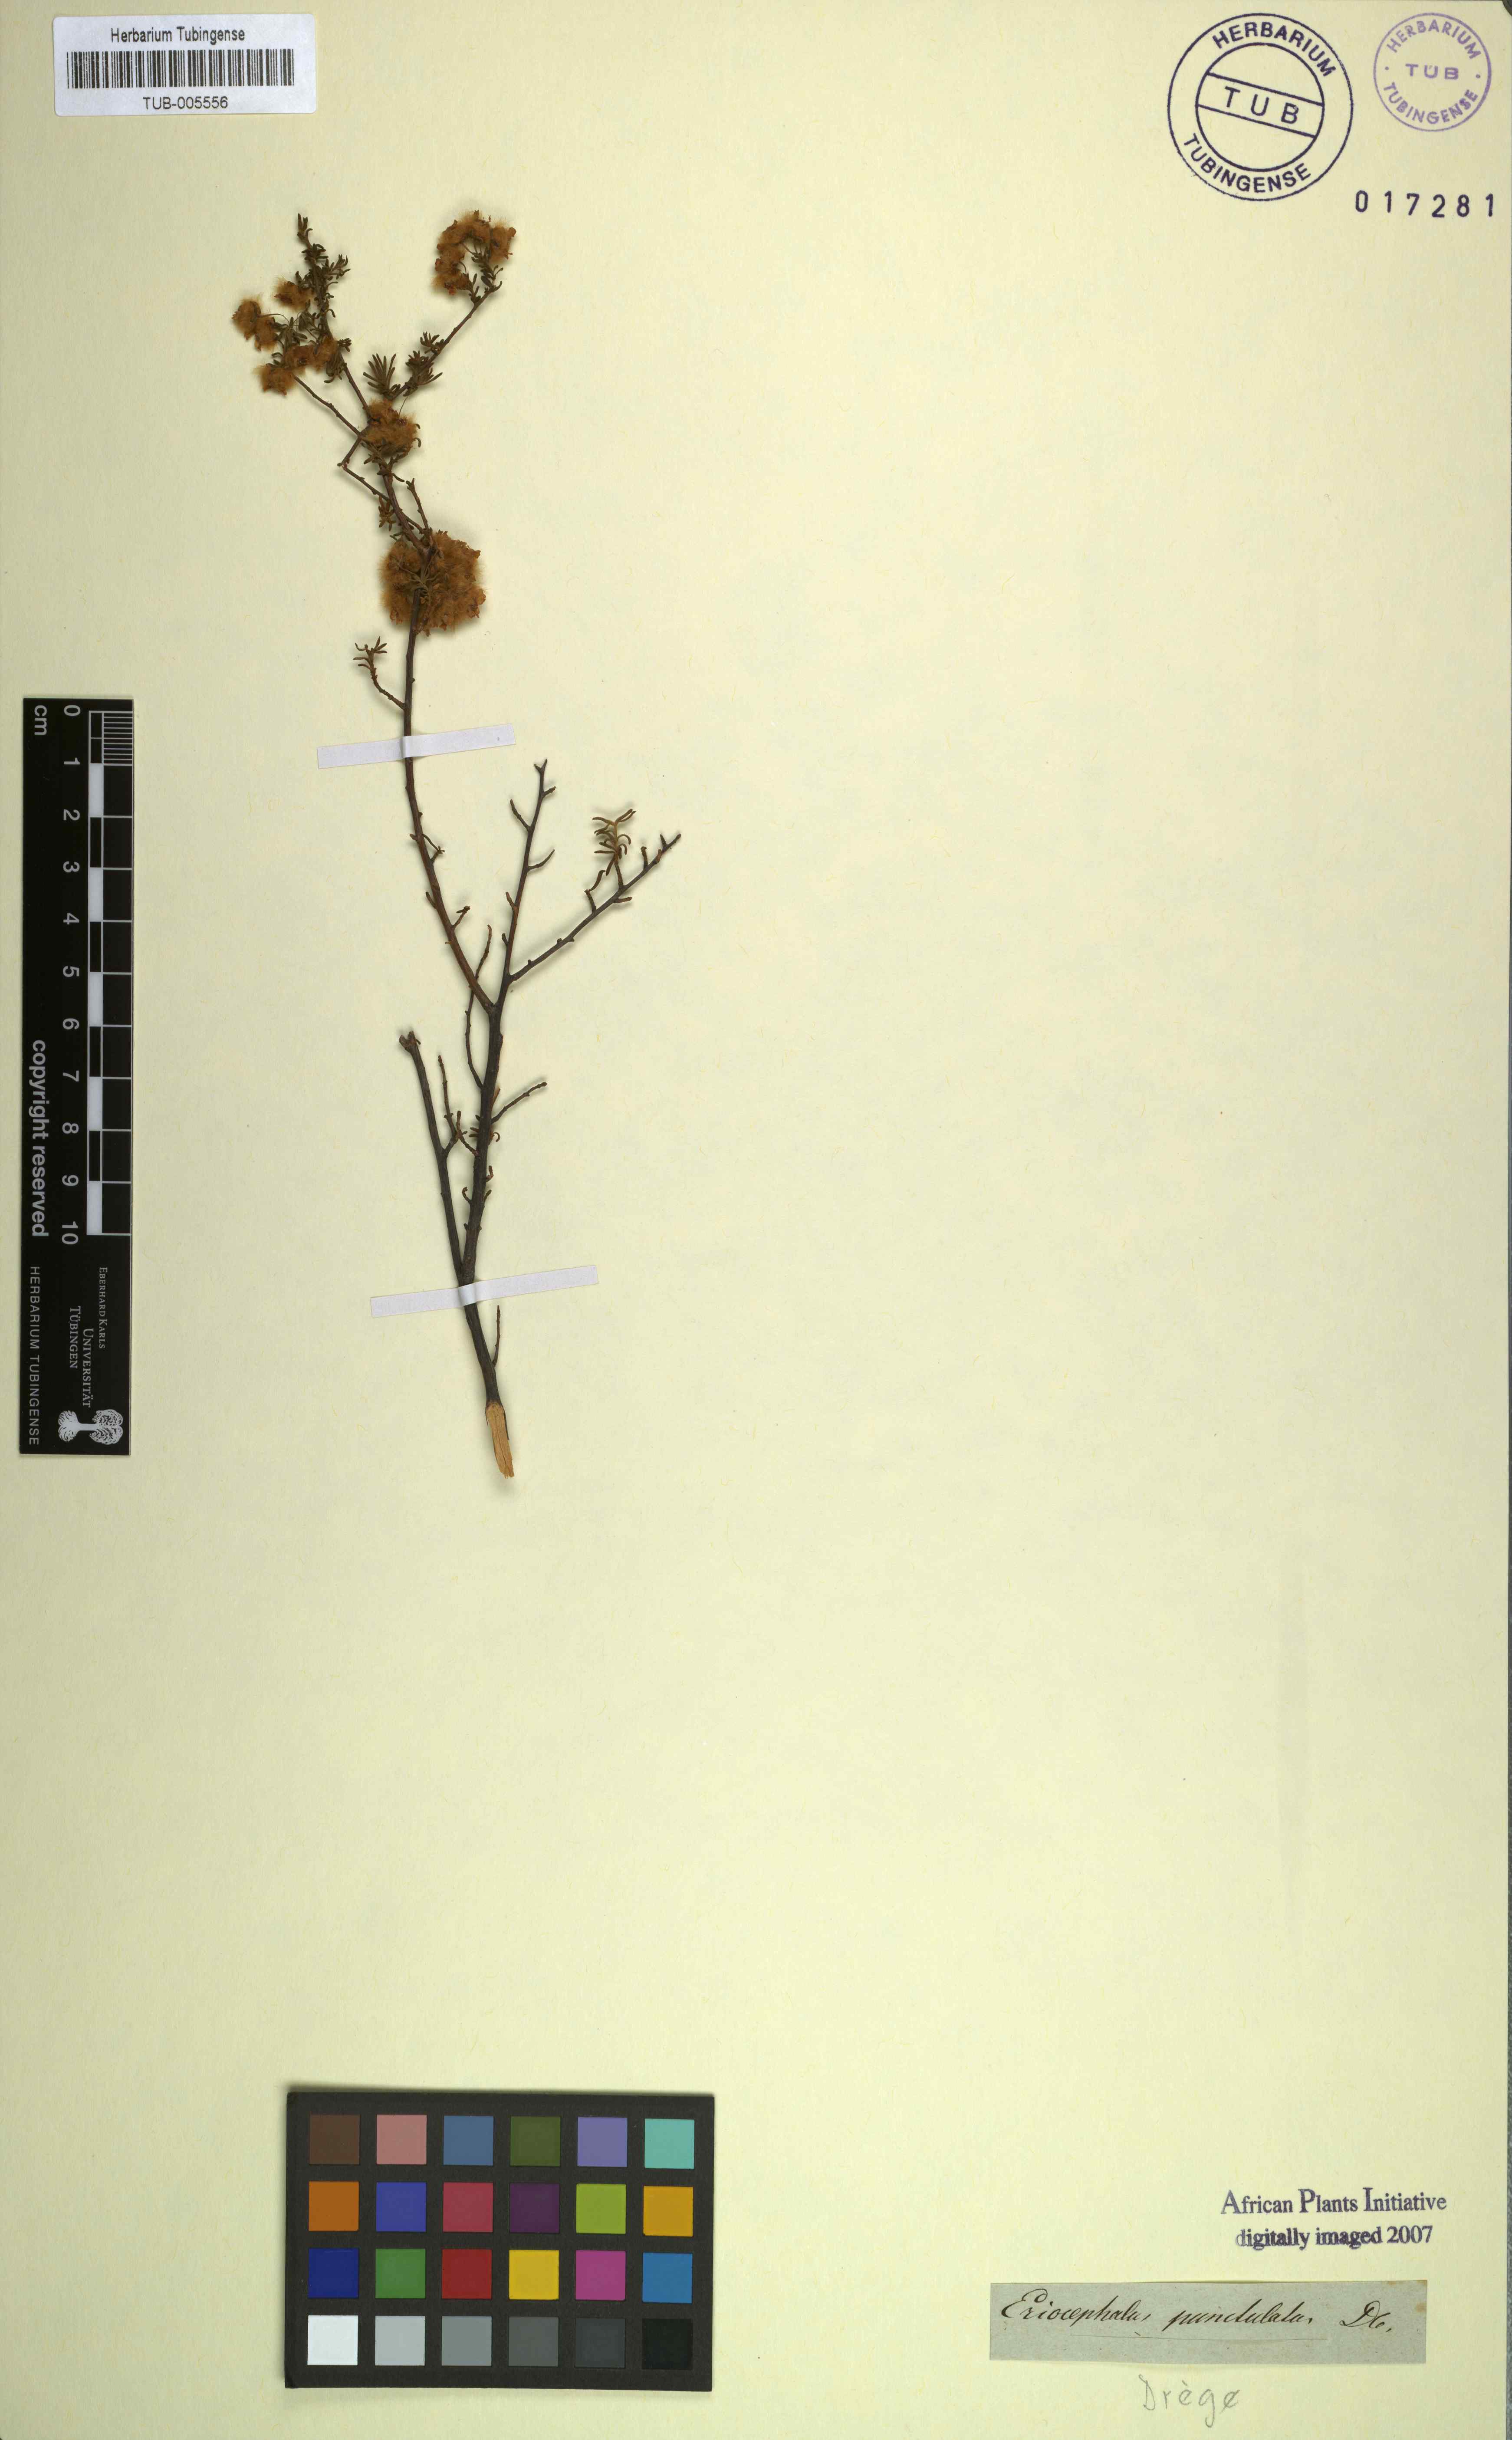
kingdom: Plantae
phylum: Tracheophyta
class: Magnoliopsida
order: Asterales
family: Asteraceae
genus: Eriocephalus
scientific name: Eriocephalus punctulatus
